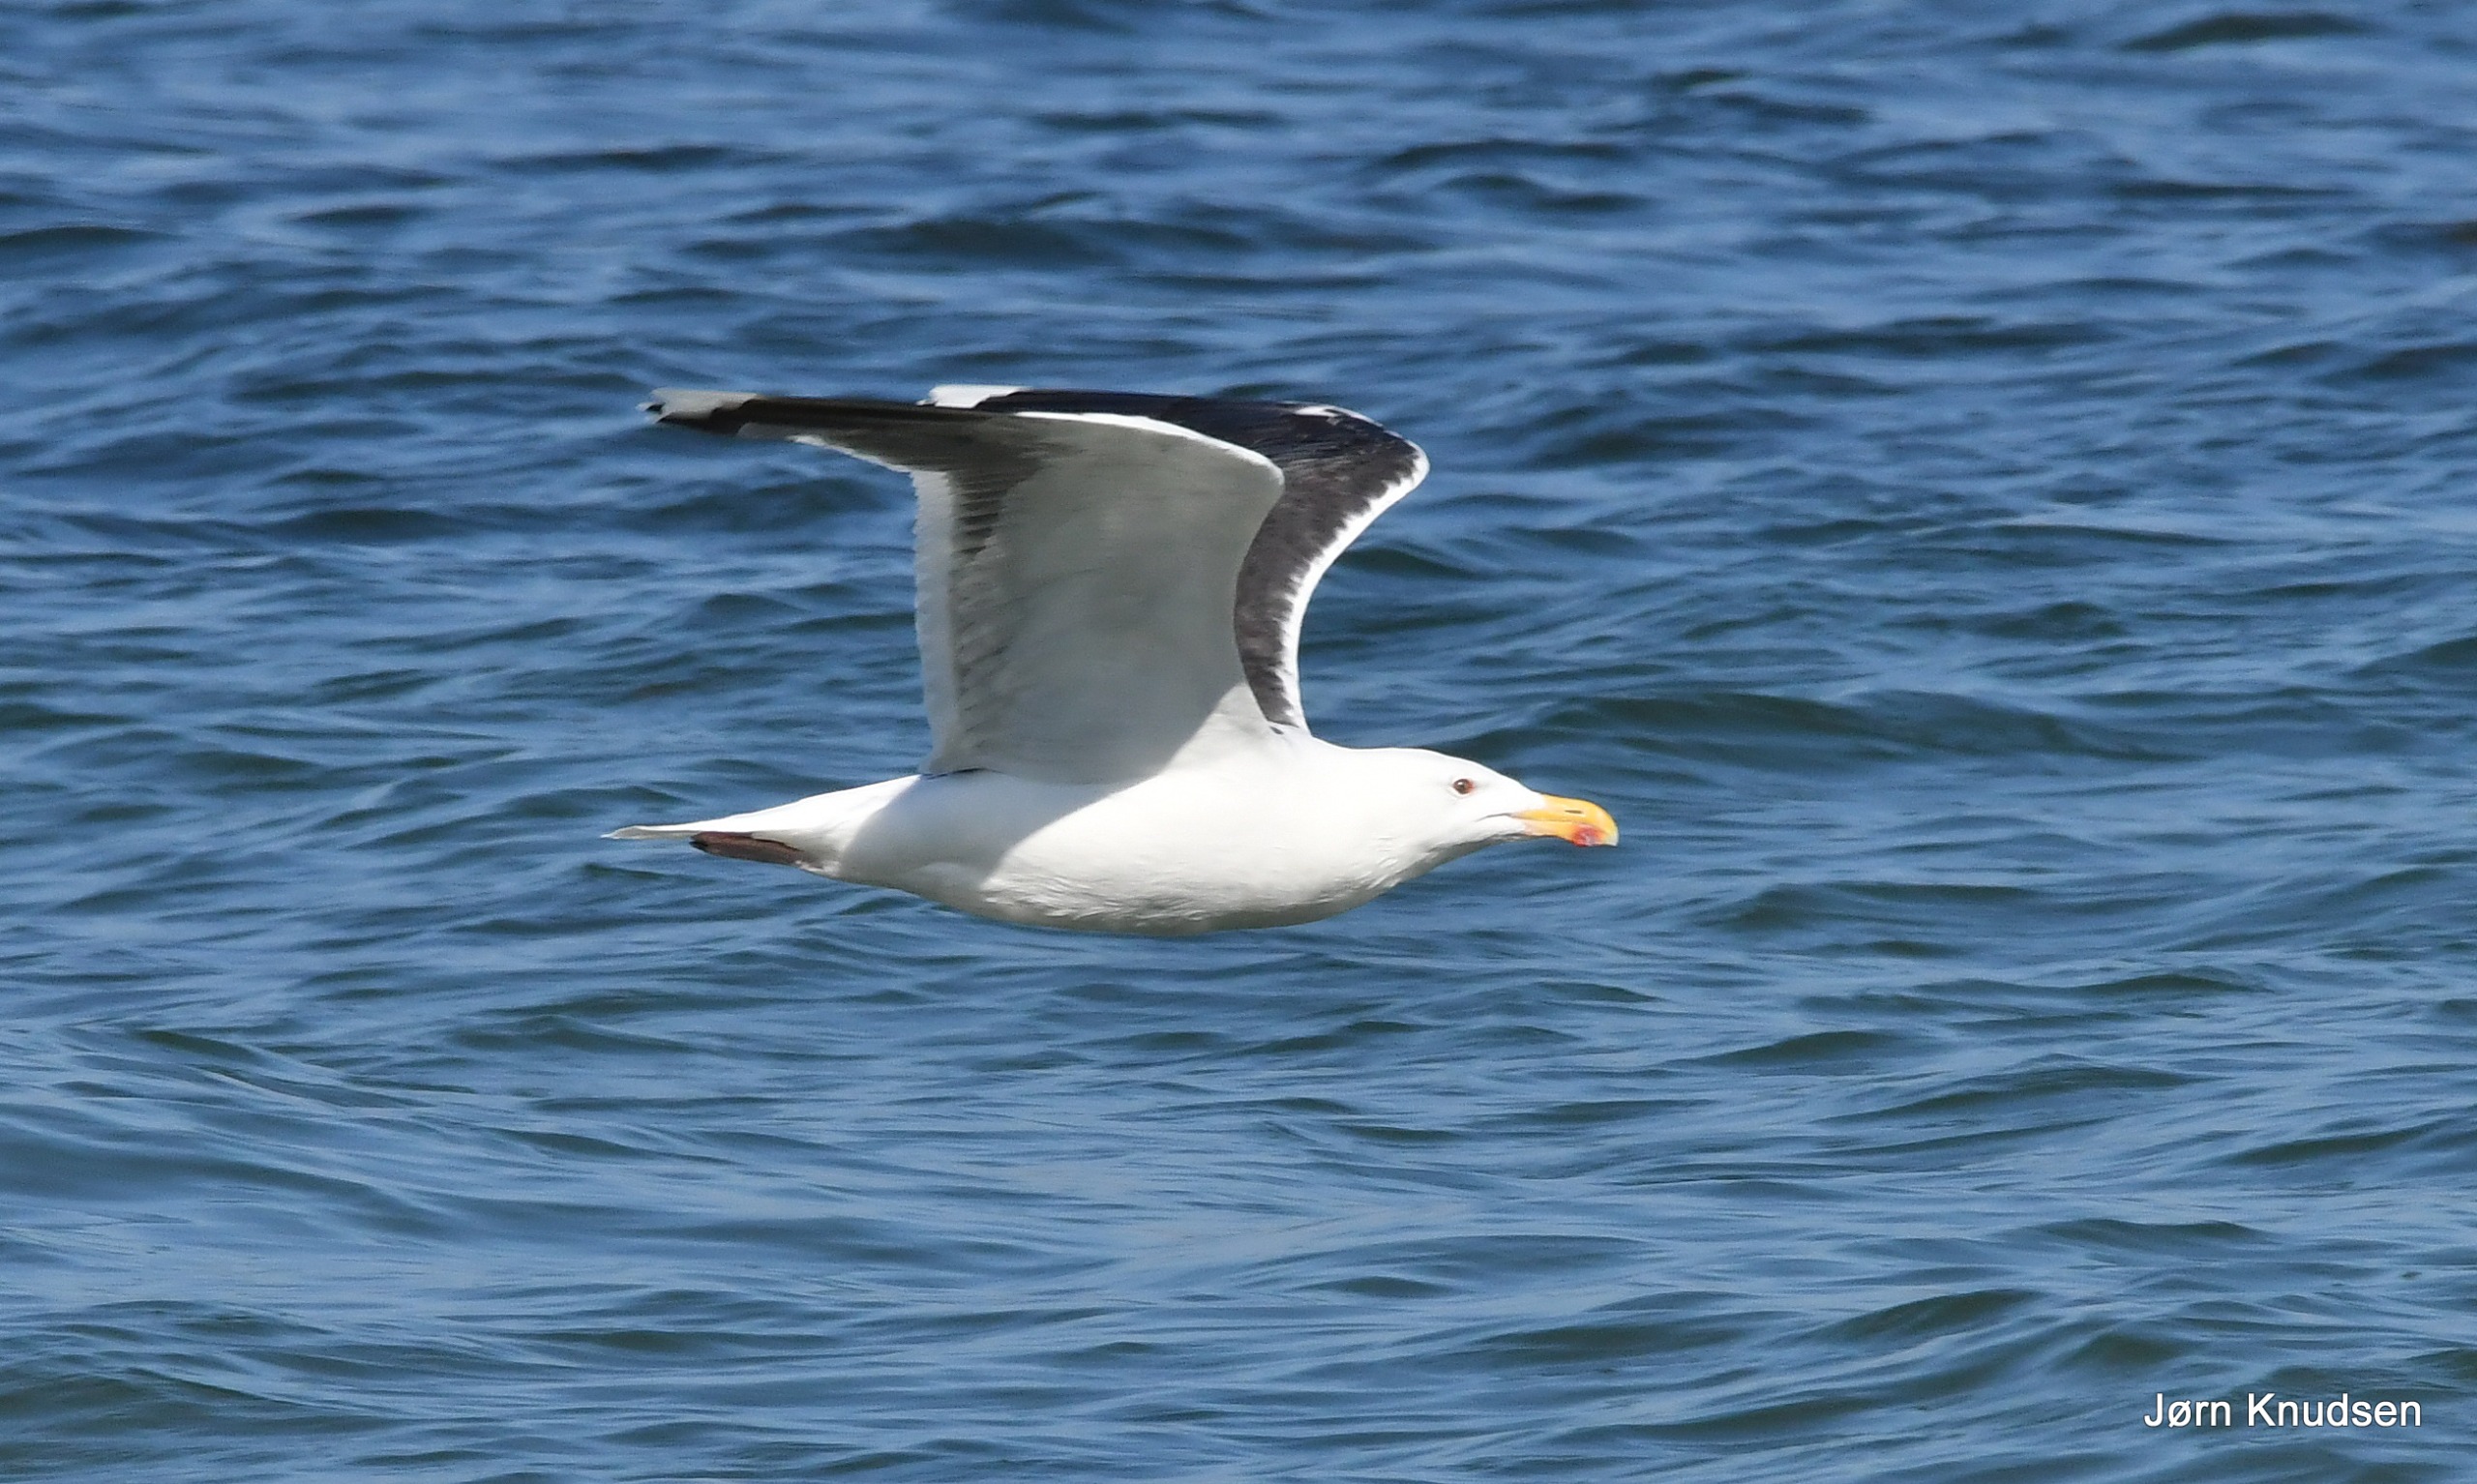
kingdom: Animalia
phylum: Chordata
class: Aves
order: Charadriiformes
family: Laridae
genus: Larus
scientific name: Larus marinus
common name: Svartbag
